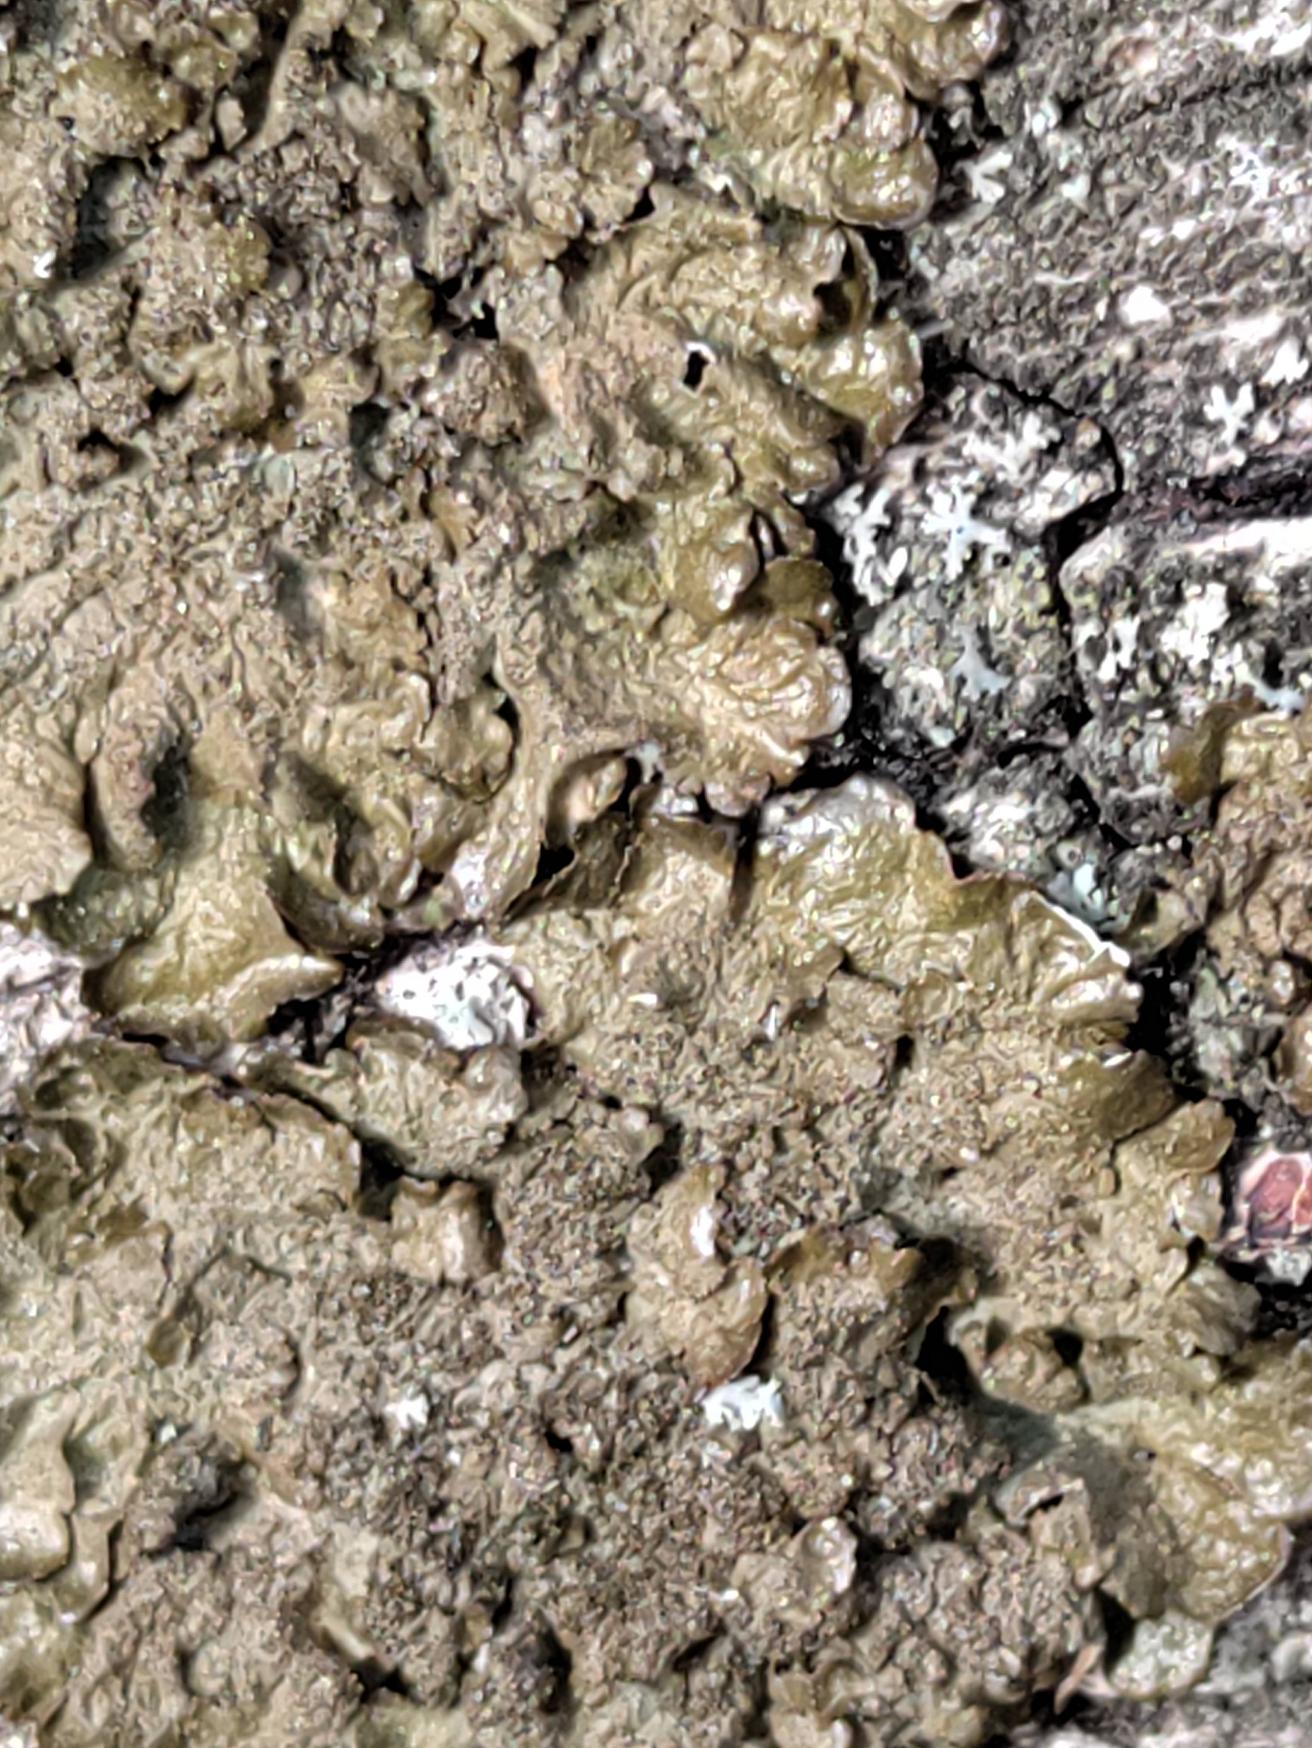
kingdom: Fungi
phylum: Ascomycota
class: Lecanoromycetes
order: Lecanorales
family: Parmeliaceae
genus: Melanelixia
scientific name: Melanelixia subaurifera
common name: Guldpudret skållav
